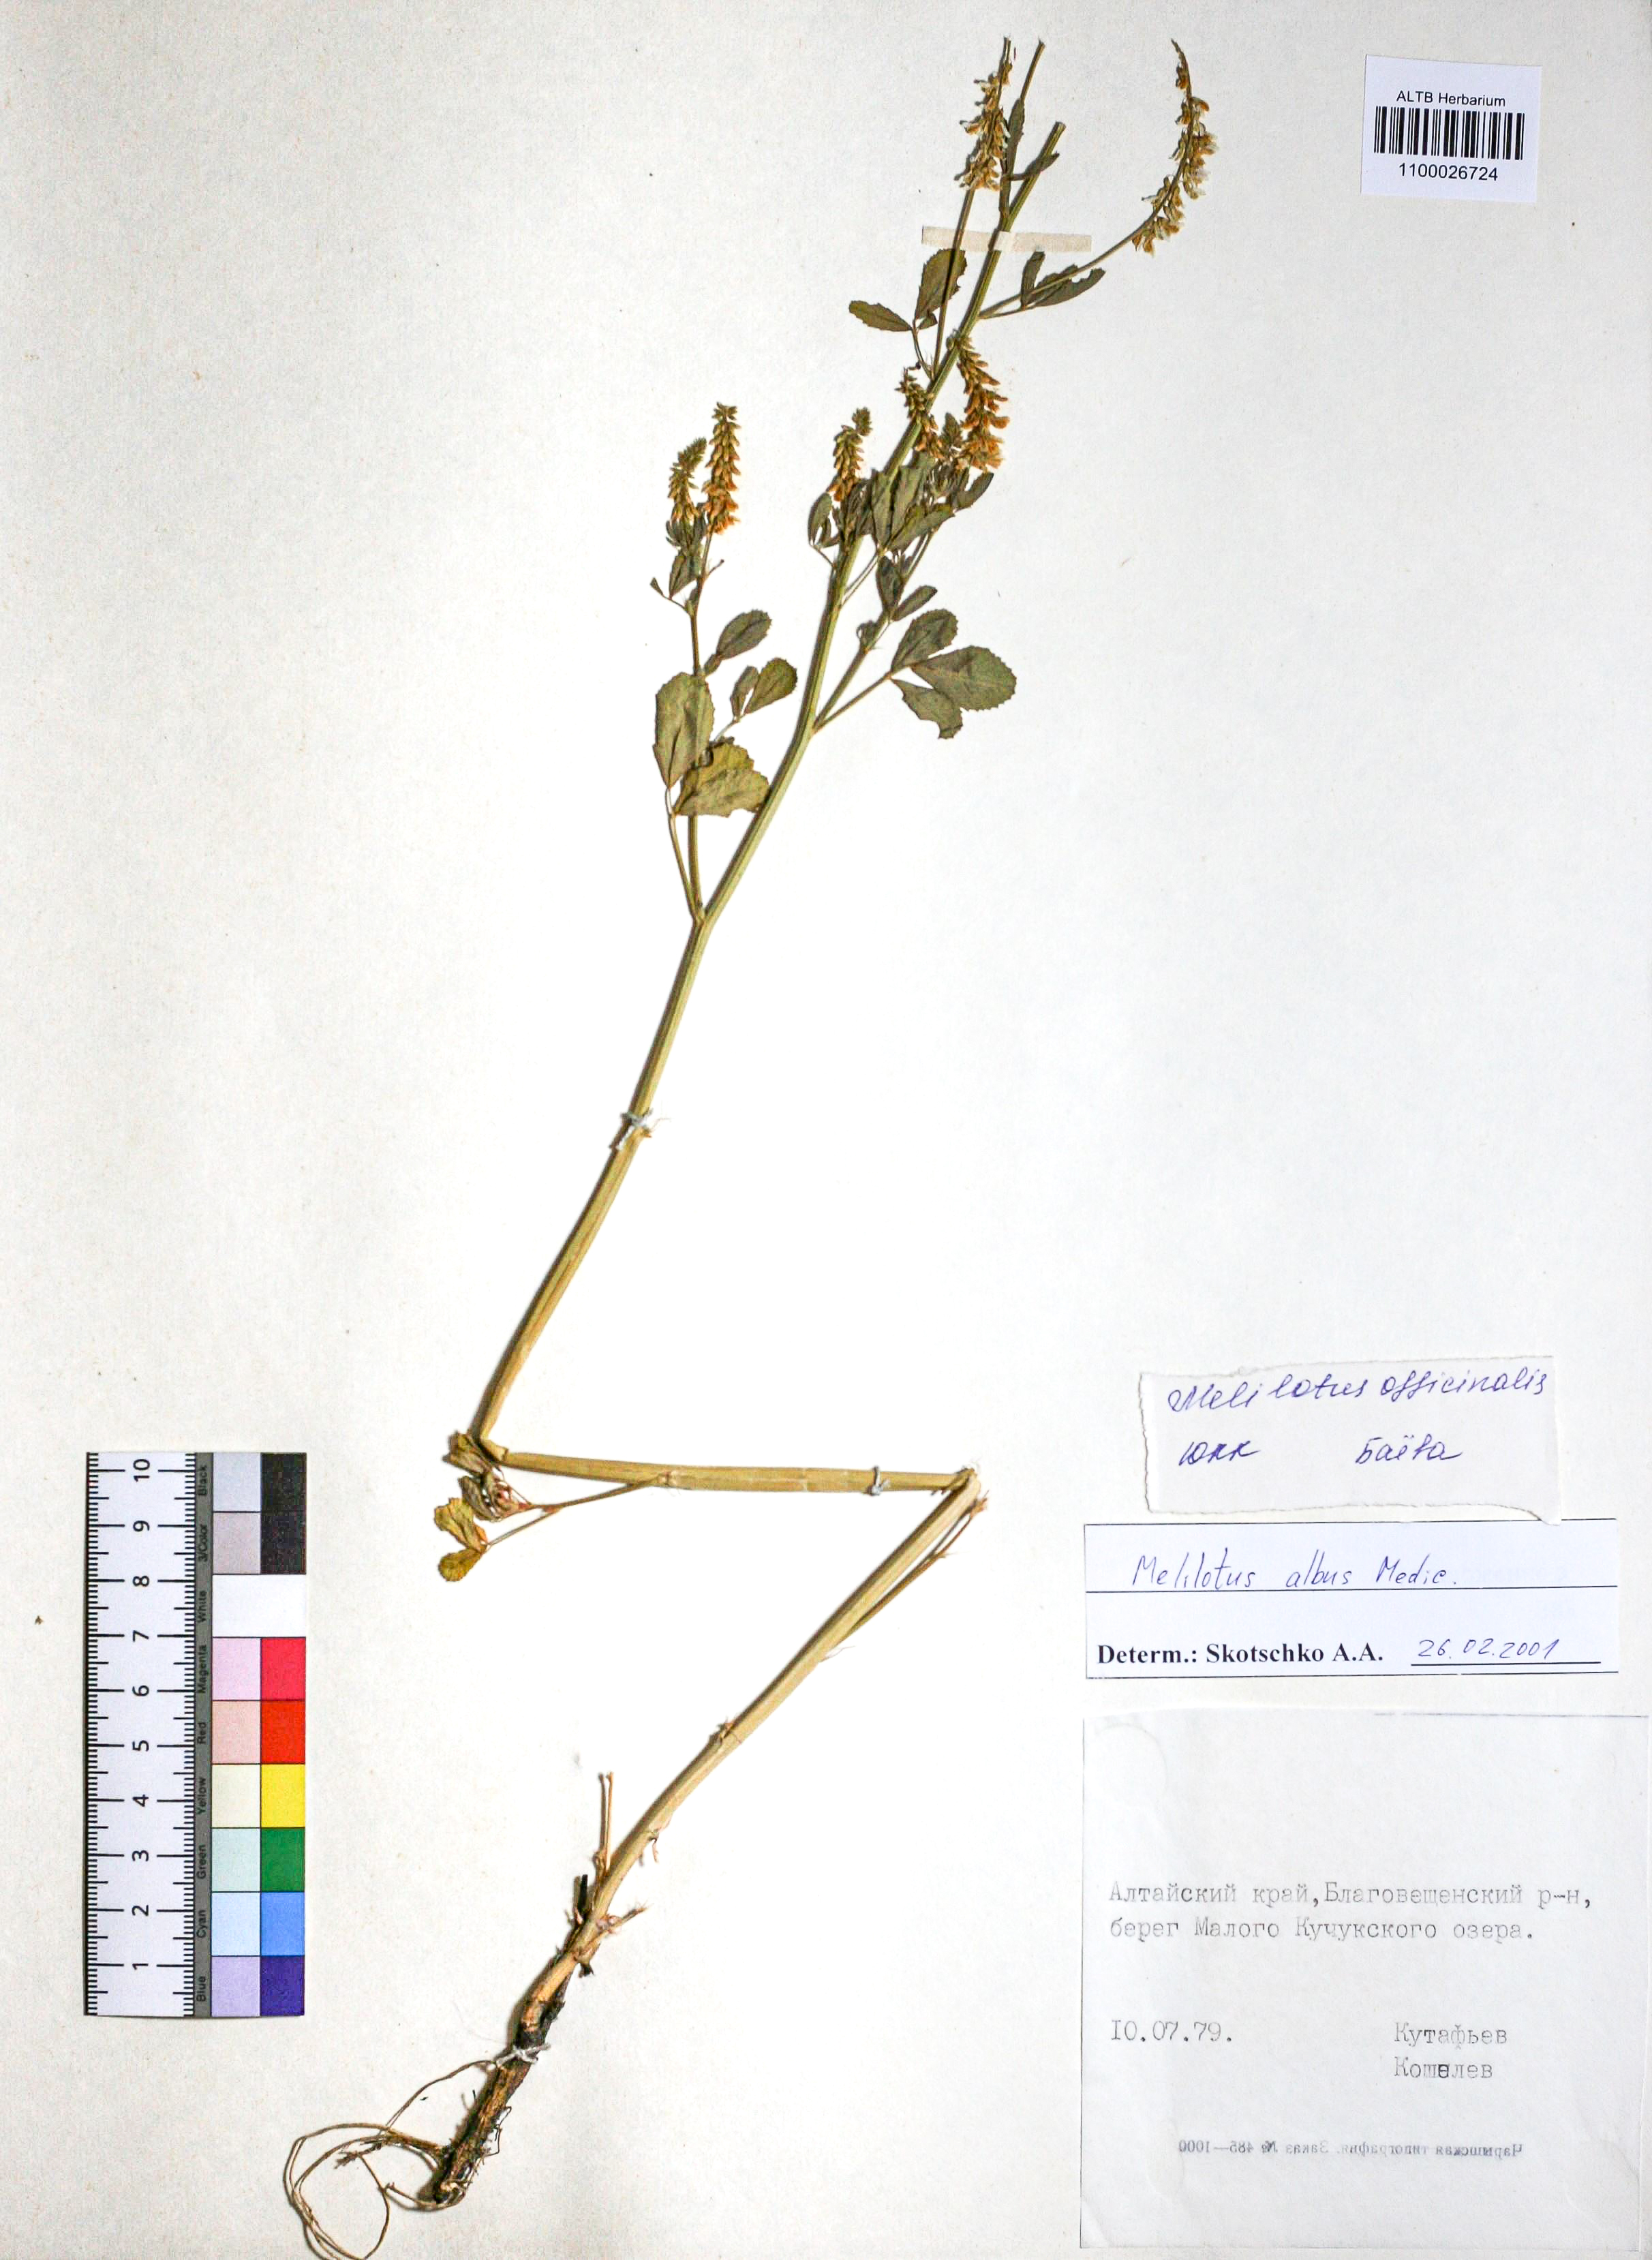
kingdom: Plantae
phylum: Tracheophyta
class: Magnoliopsida
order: Fabales
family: Fabaceae
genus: Melilotus
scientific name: Melilotus albus
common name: White melilot
